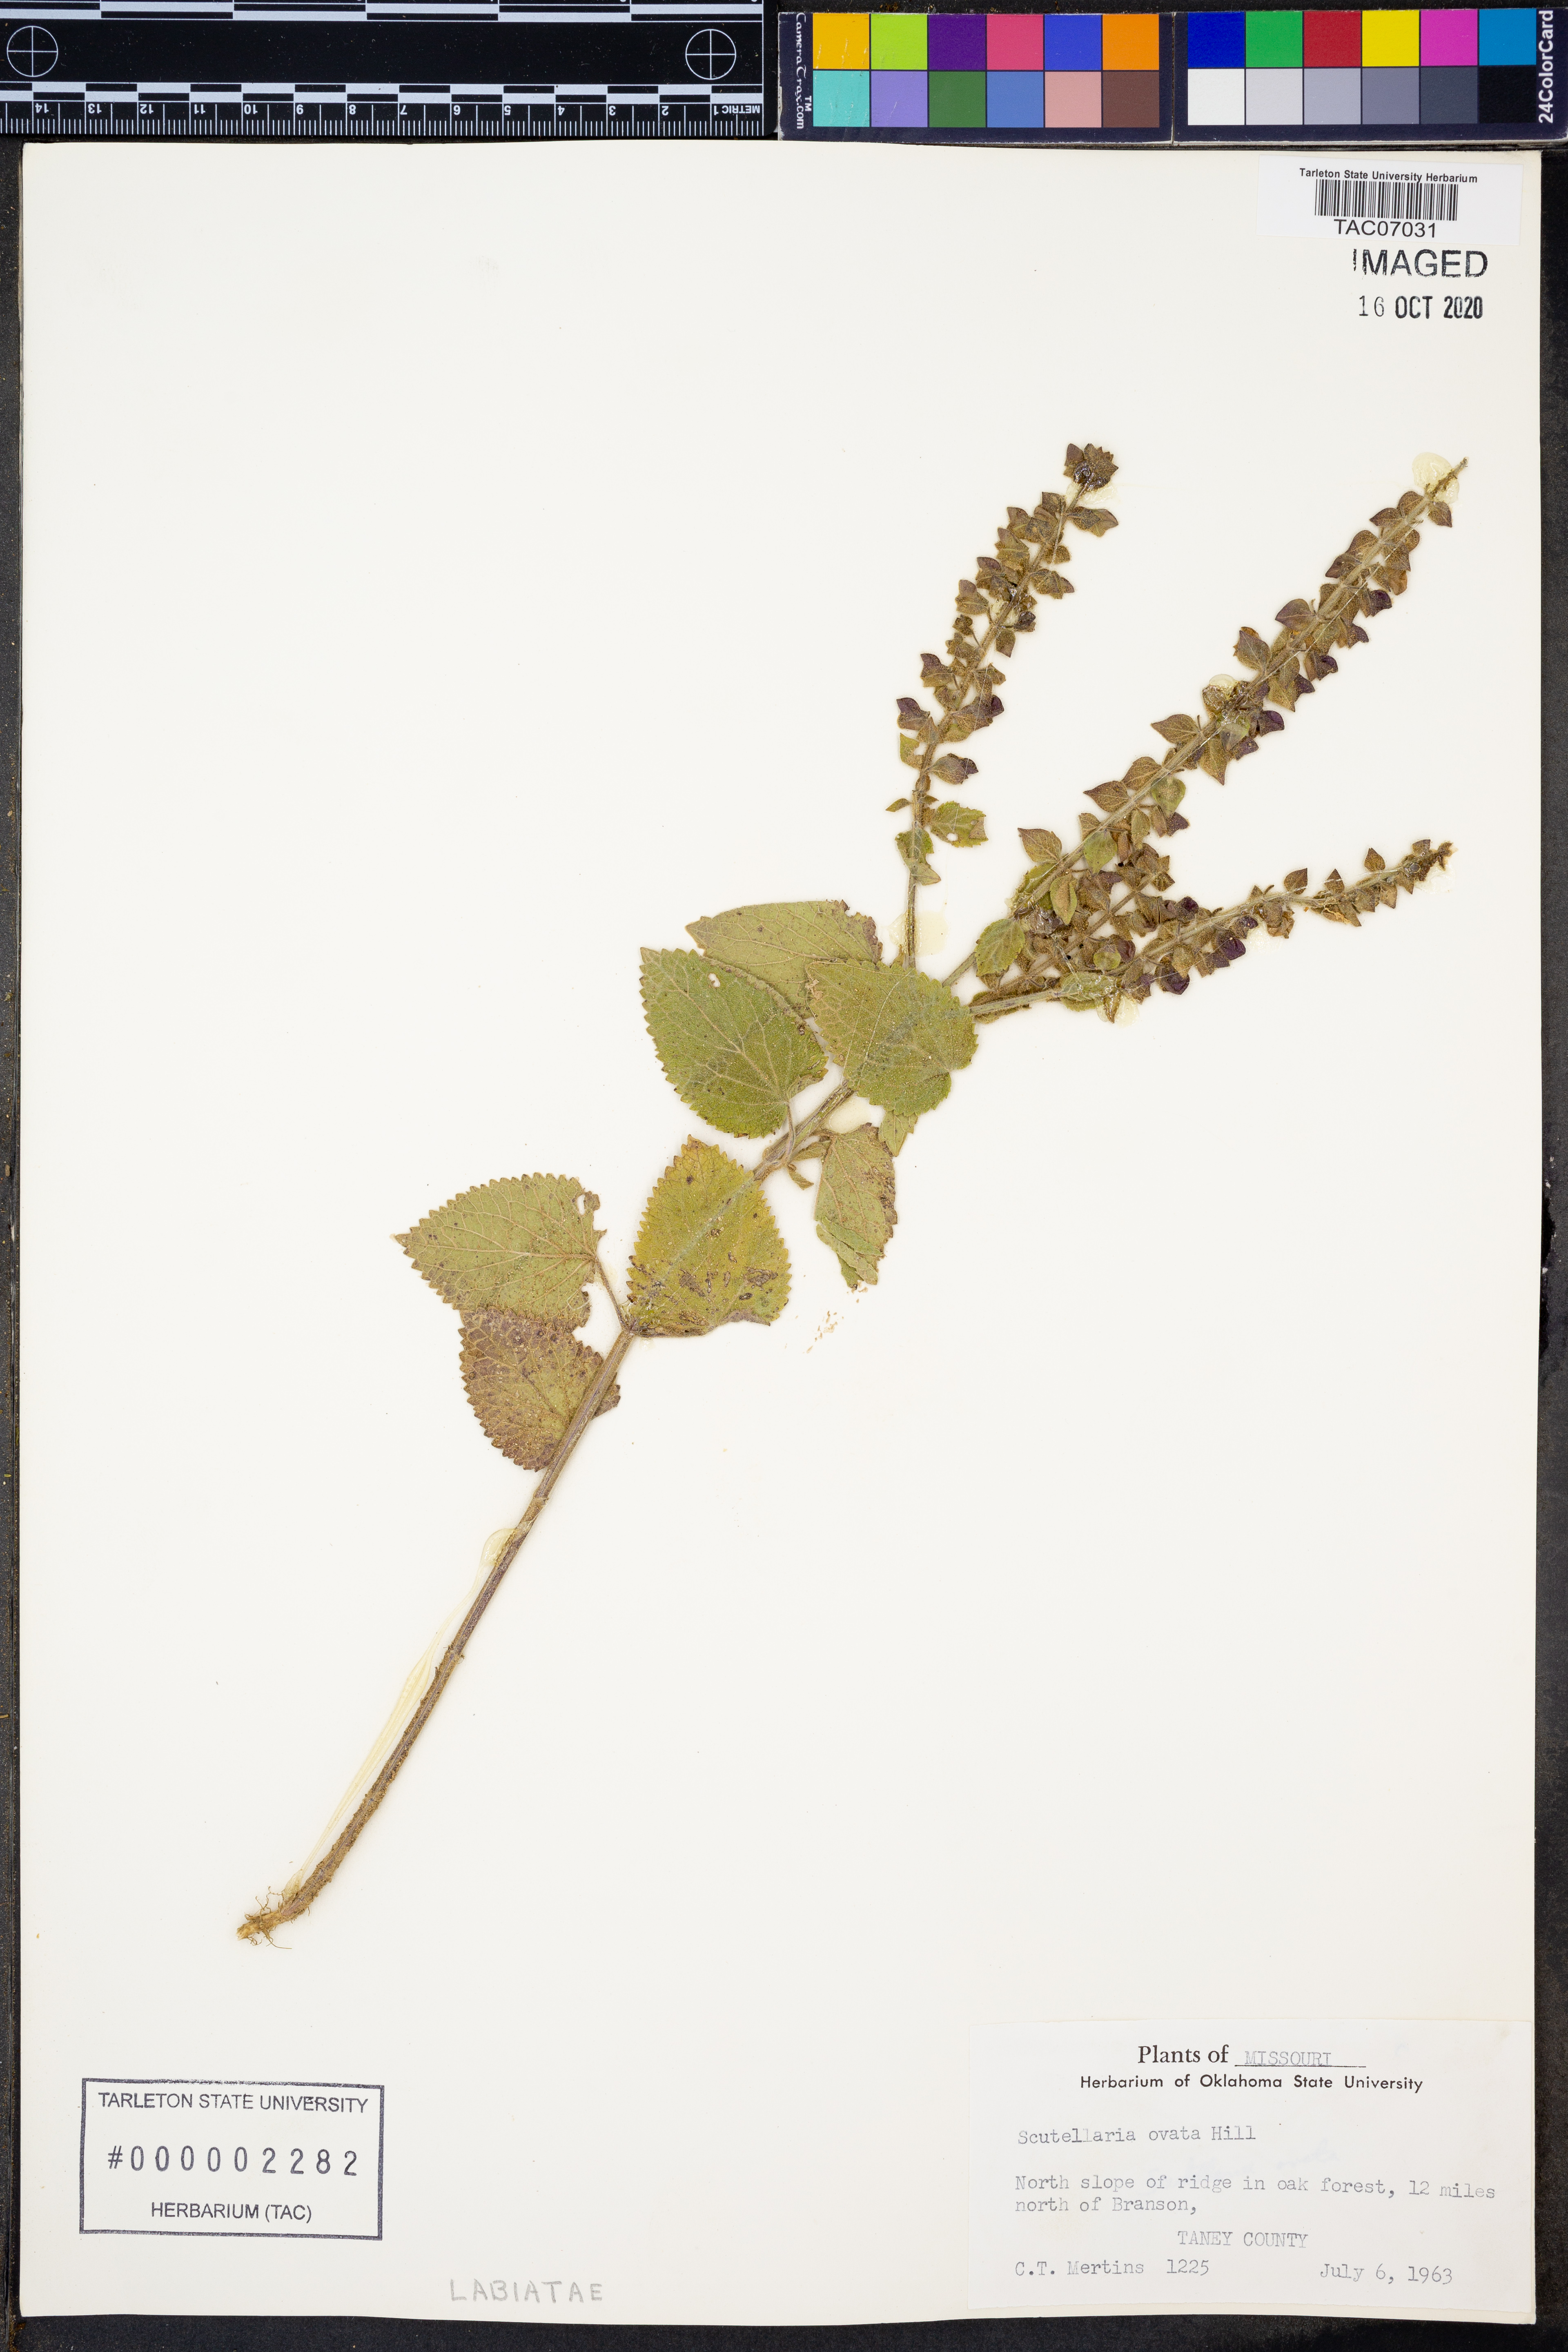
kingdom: Plantae
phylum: Tracheophyta
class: Magnoliopsida
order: Lamiales
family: Lamiaceae
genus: Scutellaria
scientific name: Scutellaria ovata
